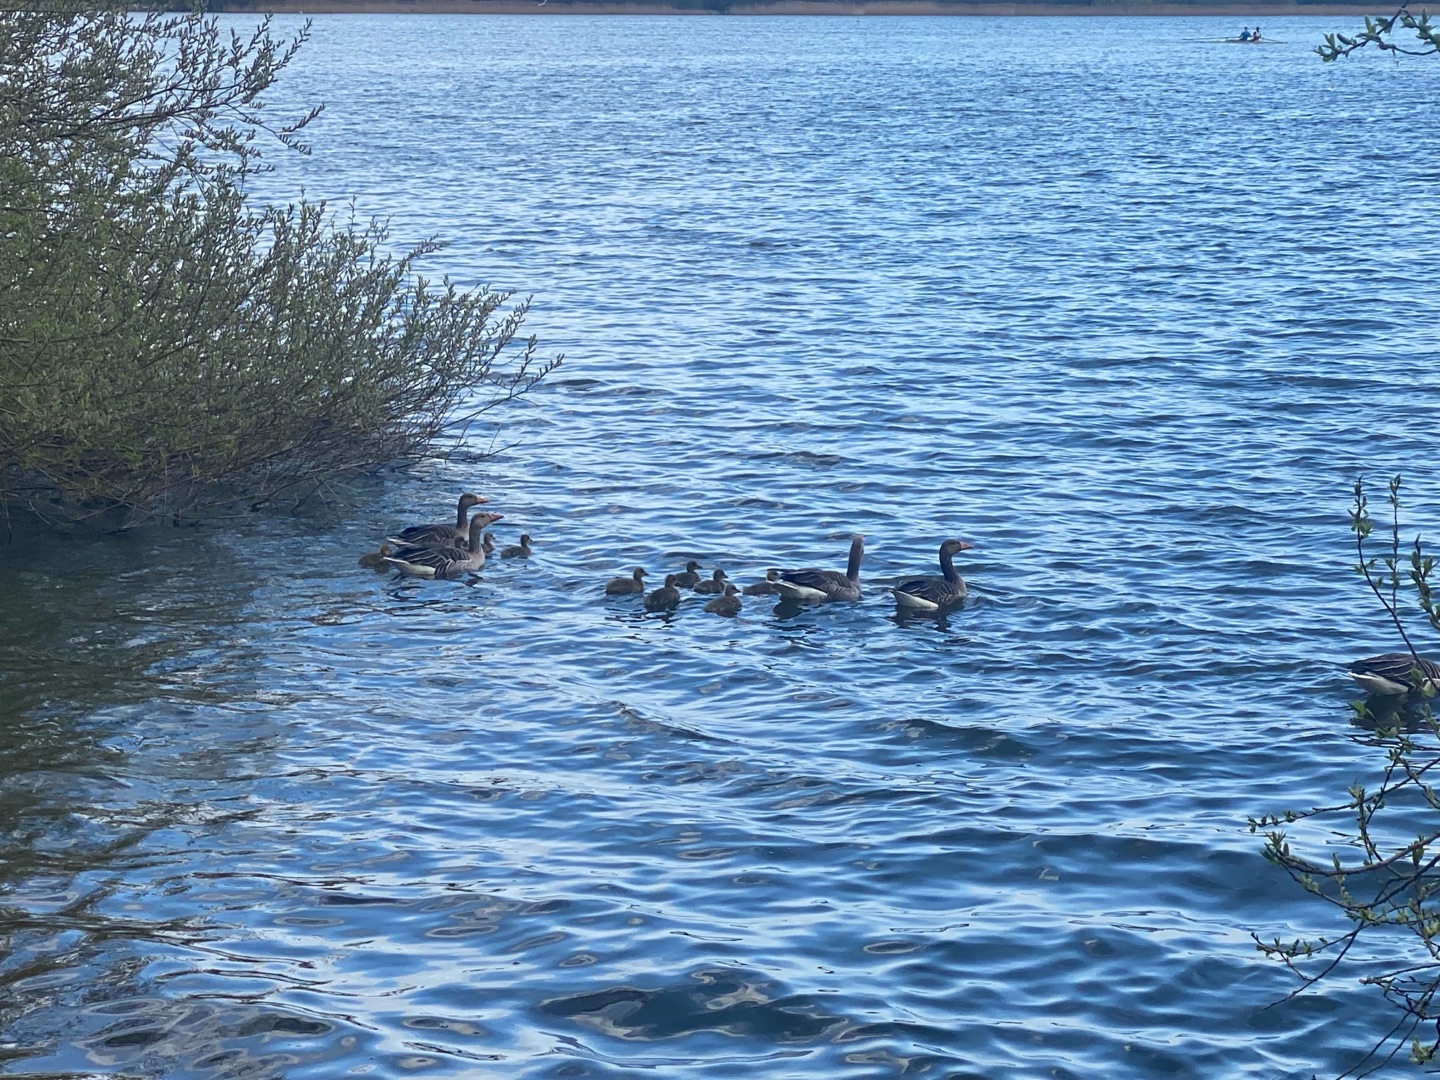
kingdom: Animalia
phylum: Chordata
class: Aves
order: Anseriformes
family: Anatidae
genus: Anser
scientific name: Anser anser
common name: Grågås
